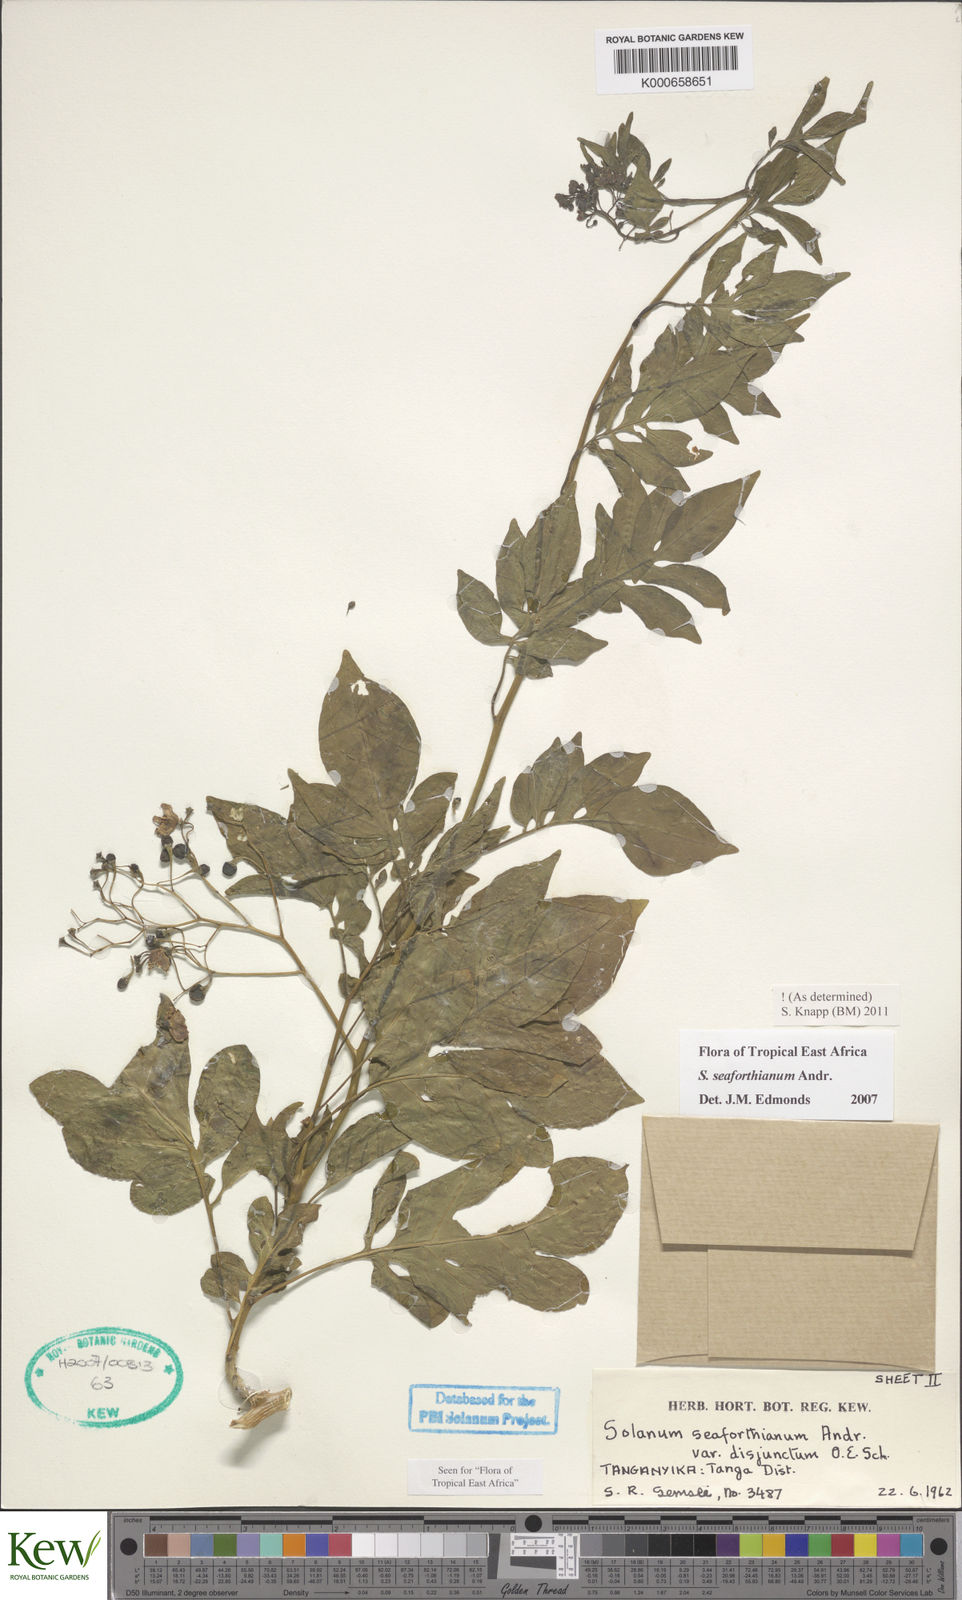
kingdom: Plantae
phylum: Tracheophyta
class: Magnoliopsida
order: Solanales
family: Solanaceae
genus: Solanum
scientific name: Solanum seaforthianum
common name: Brazilian nightshade
